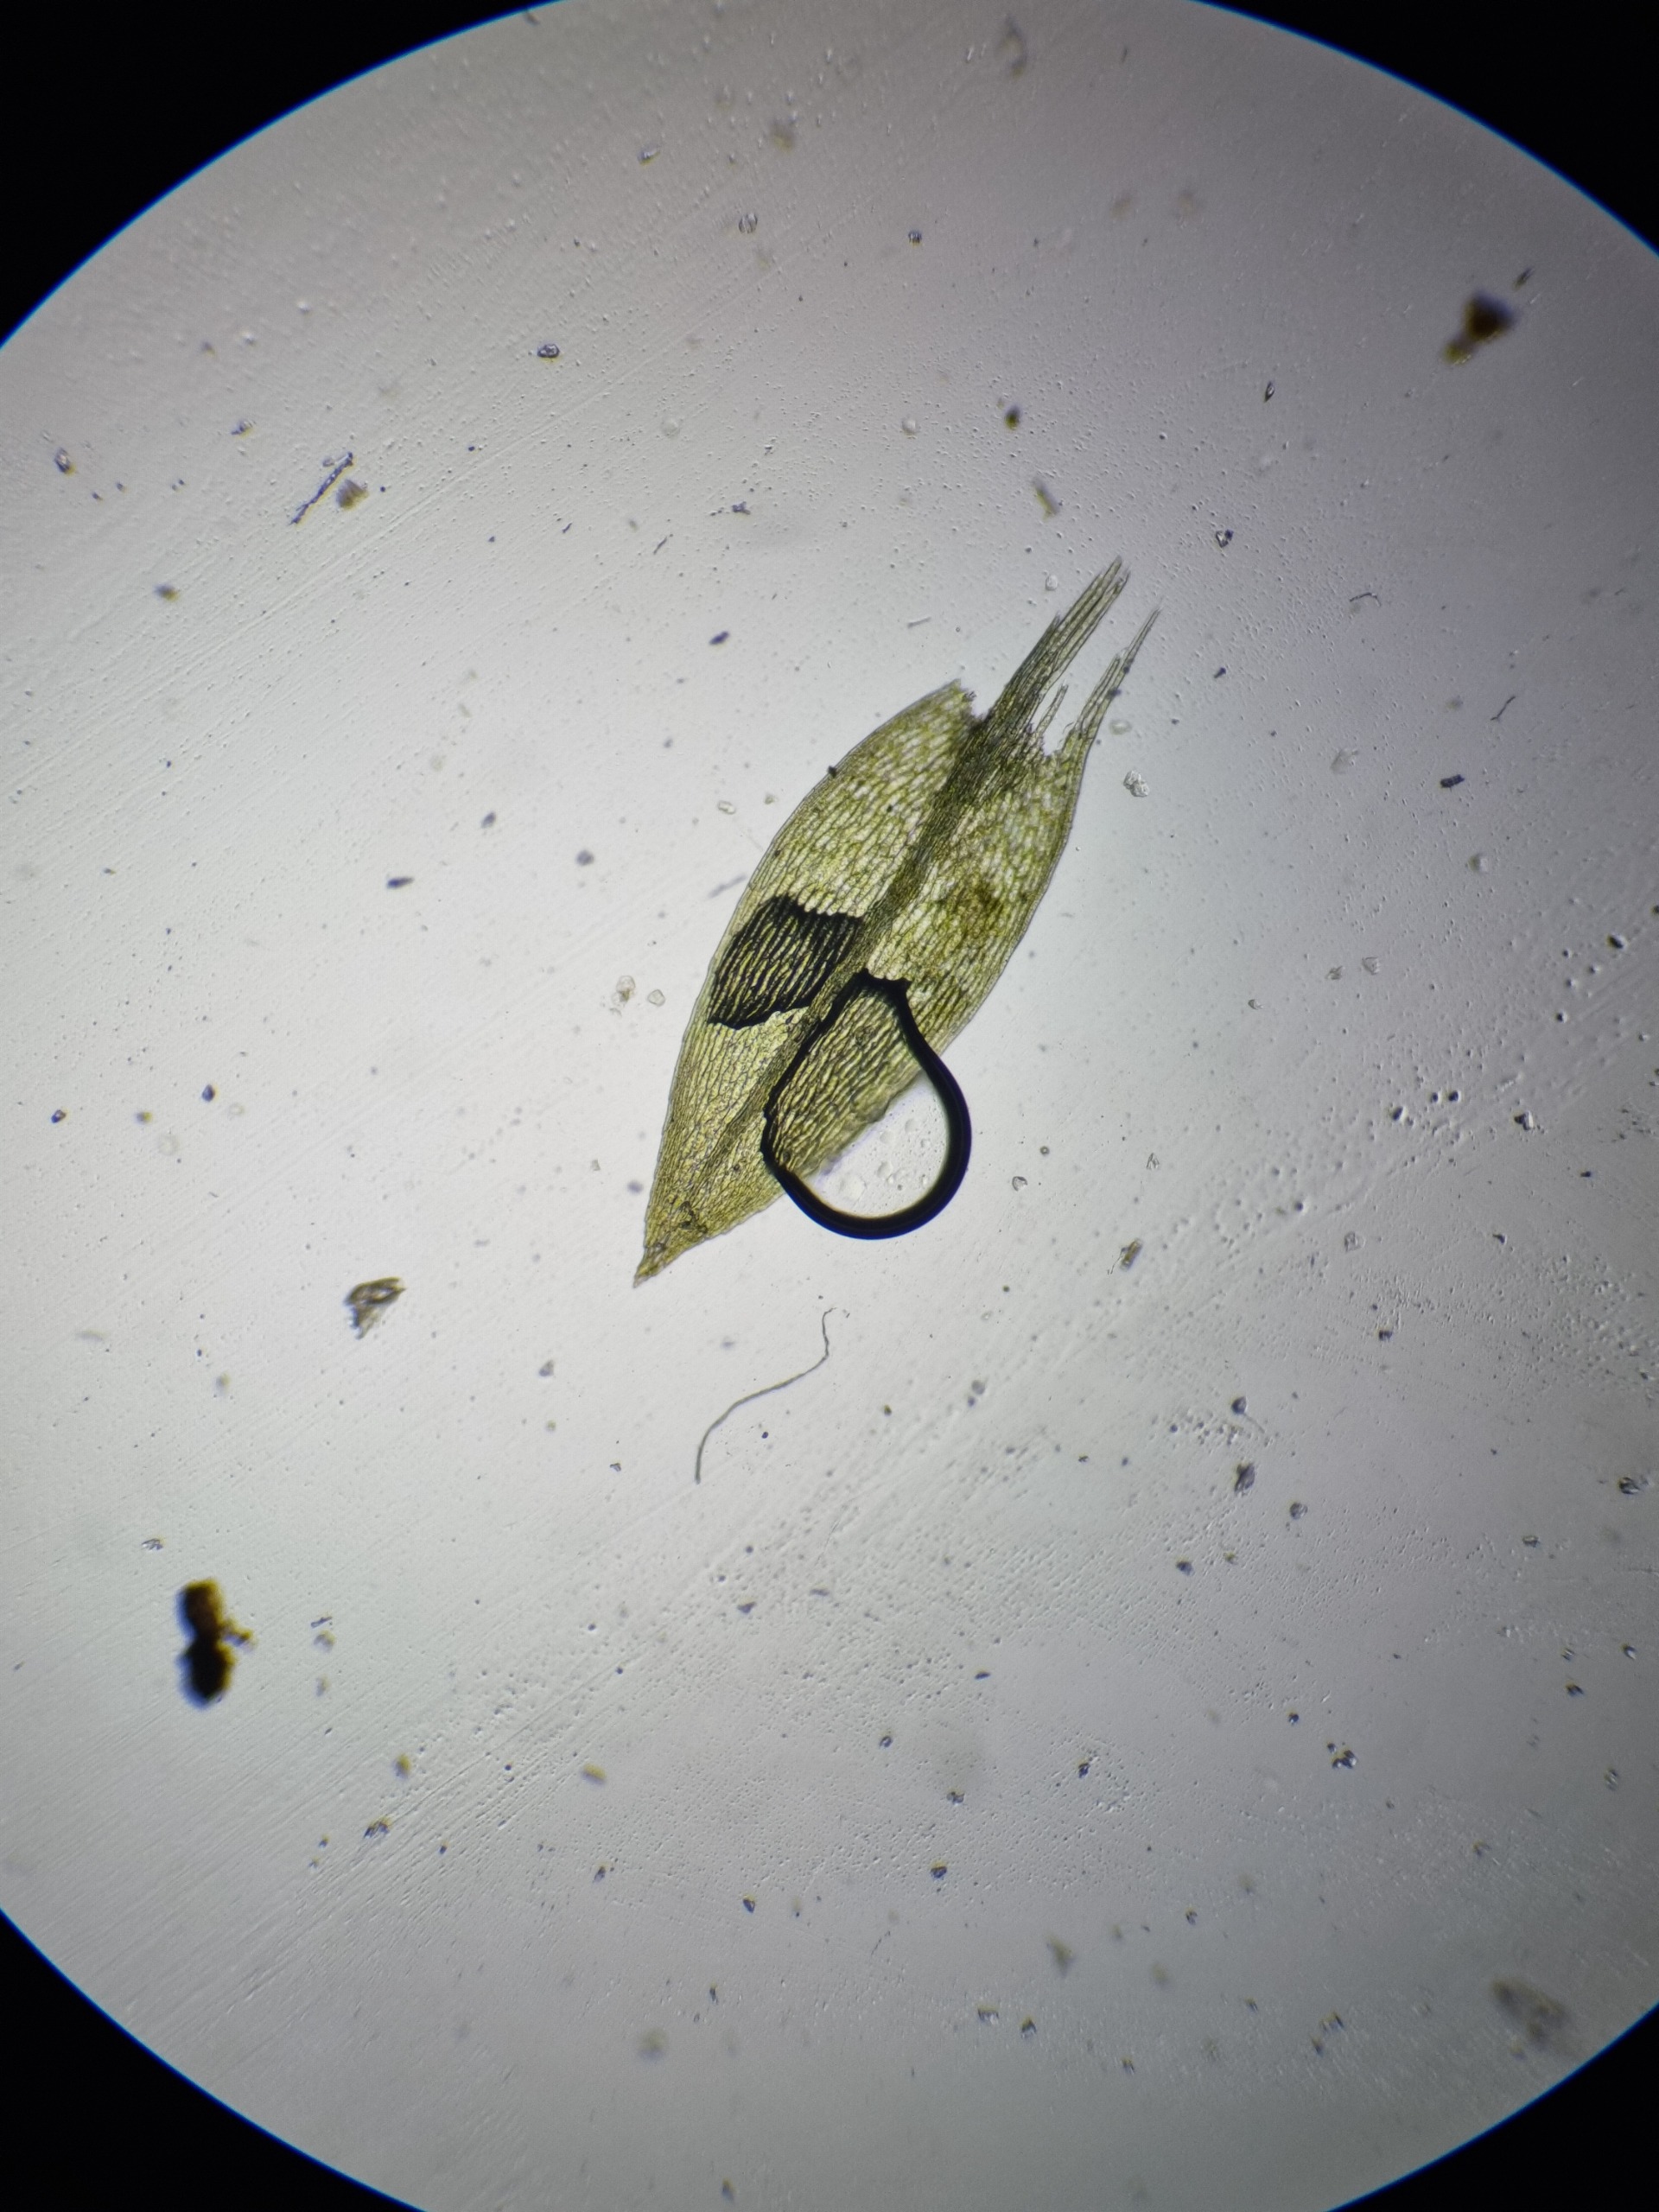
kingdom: Plantae
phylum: Bryophyta
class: Bryopsida
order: Bryales
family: Mniaceae
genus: Pohlia
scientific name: Pohlia wahlenbergii
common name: Lysegrøn voksmos
